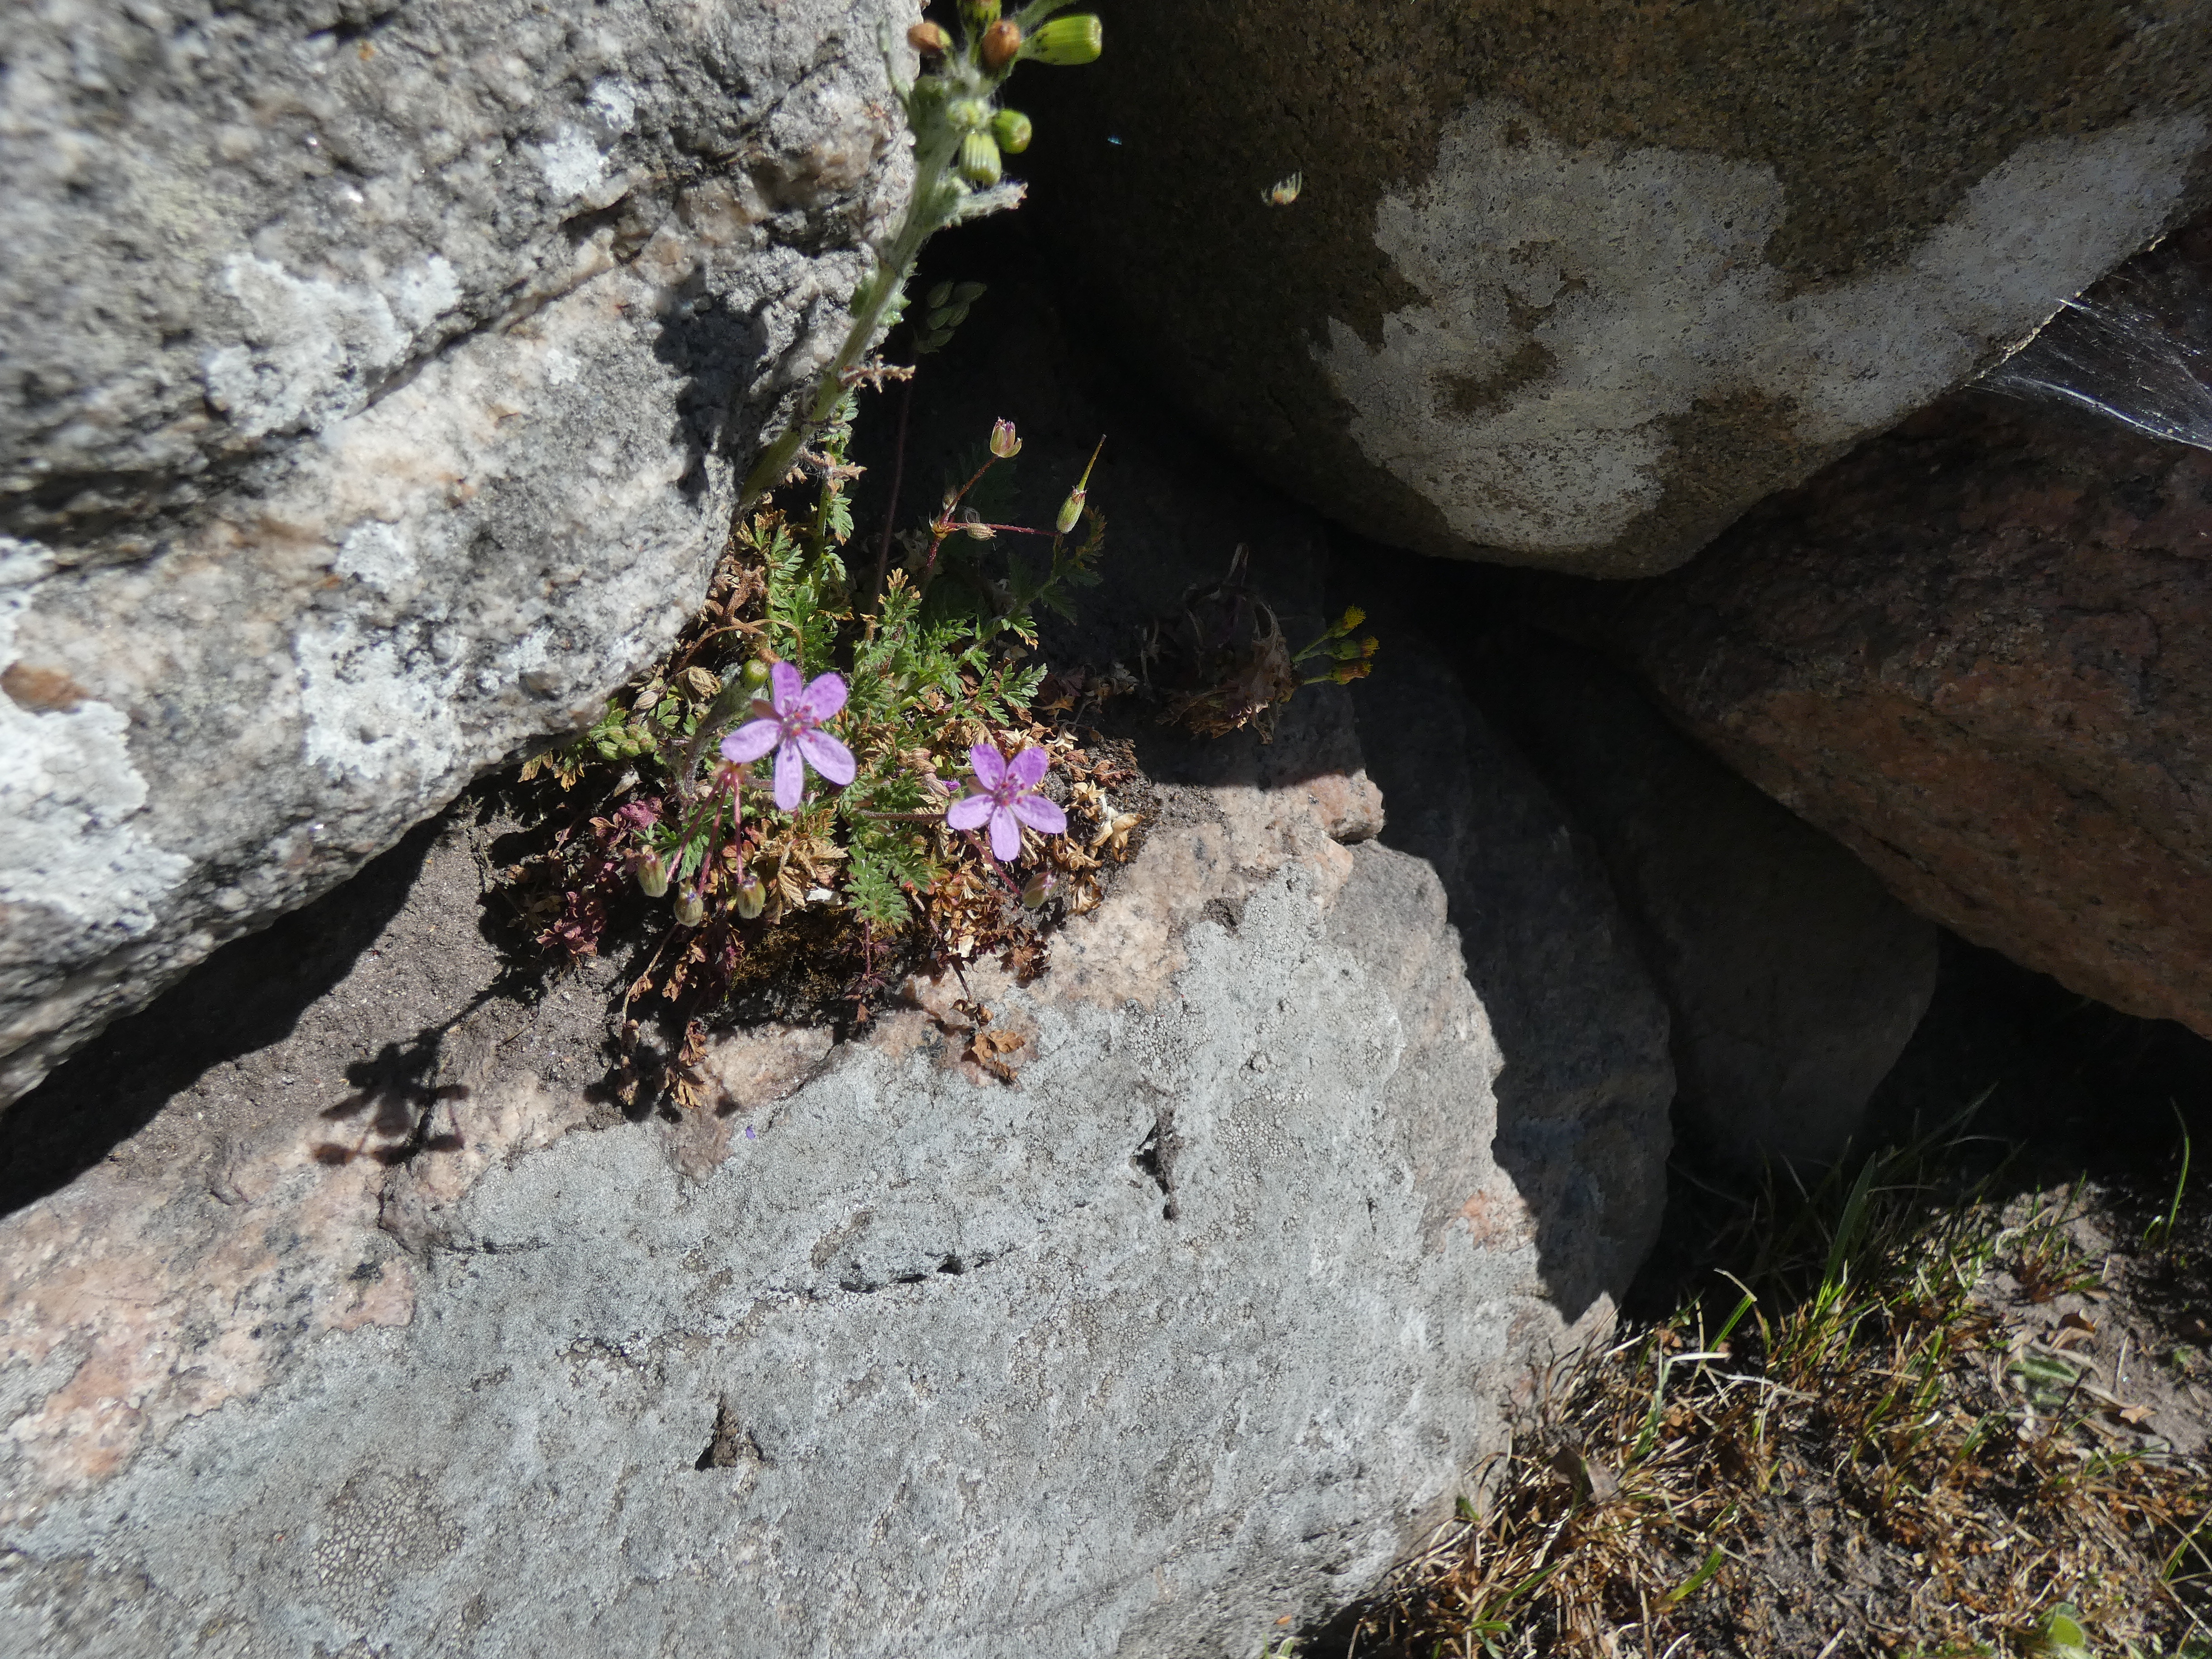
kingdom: Plantae
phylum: Tracheophyta
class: Magnoliopsida
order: Geraniales
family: Geraniaceae
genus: Erodium
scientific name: Erodium cicutarium
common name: Hejrenæb
